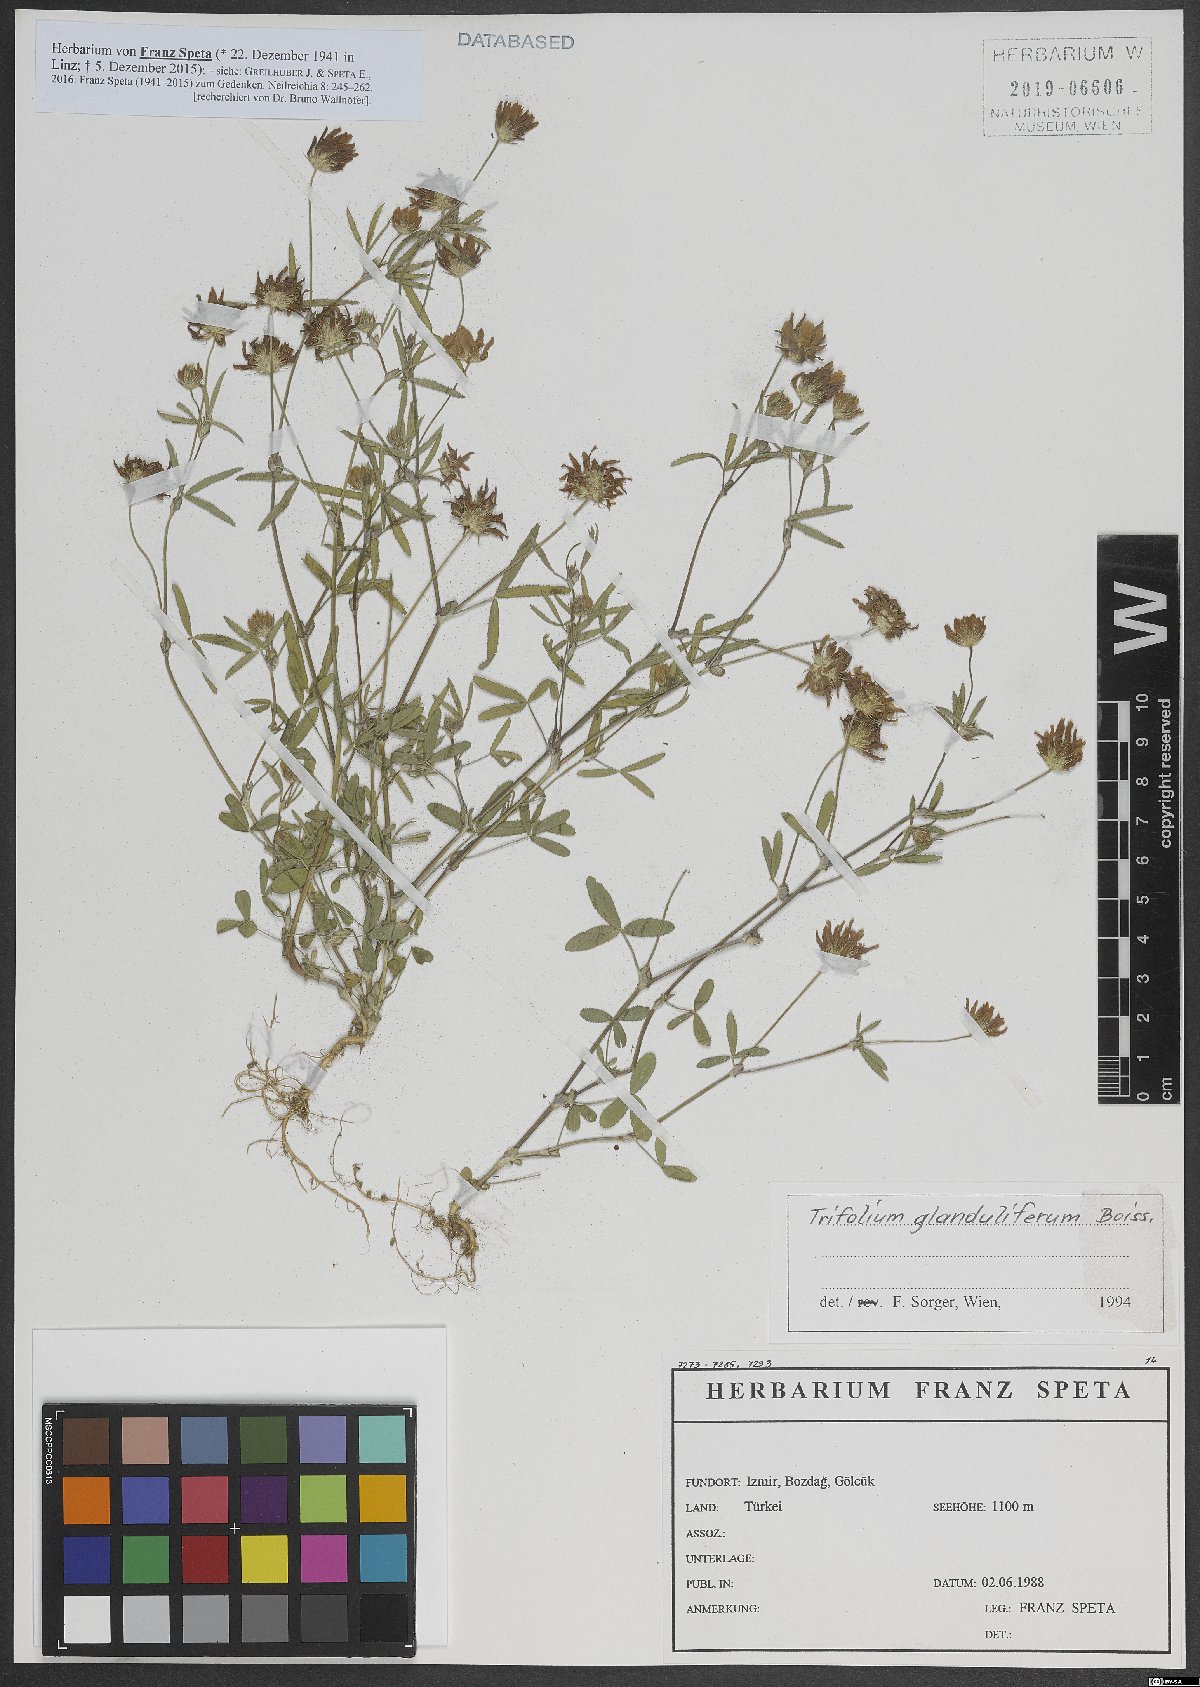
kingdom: Plantae
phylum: Tracheophyta
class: Magnoliopsida
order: Fabales
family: Fabaceae
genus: Trifolium
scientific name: Trifolium glanduliferum
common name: Glandular clover
